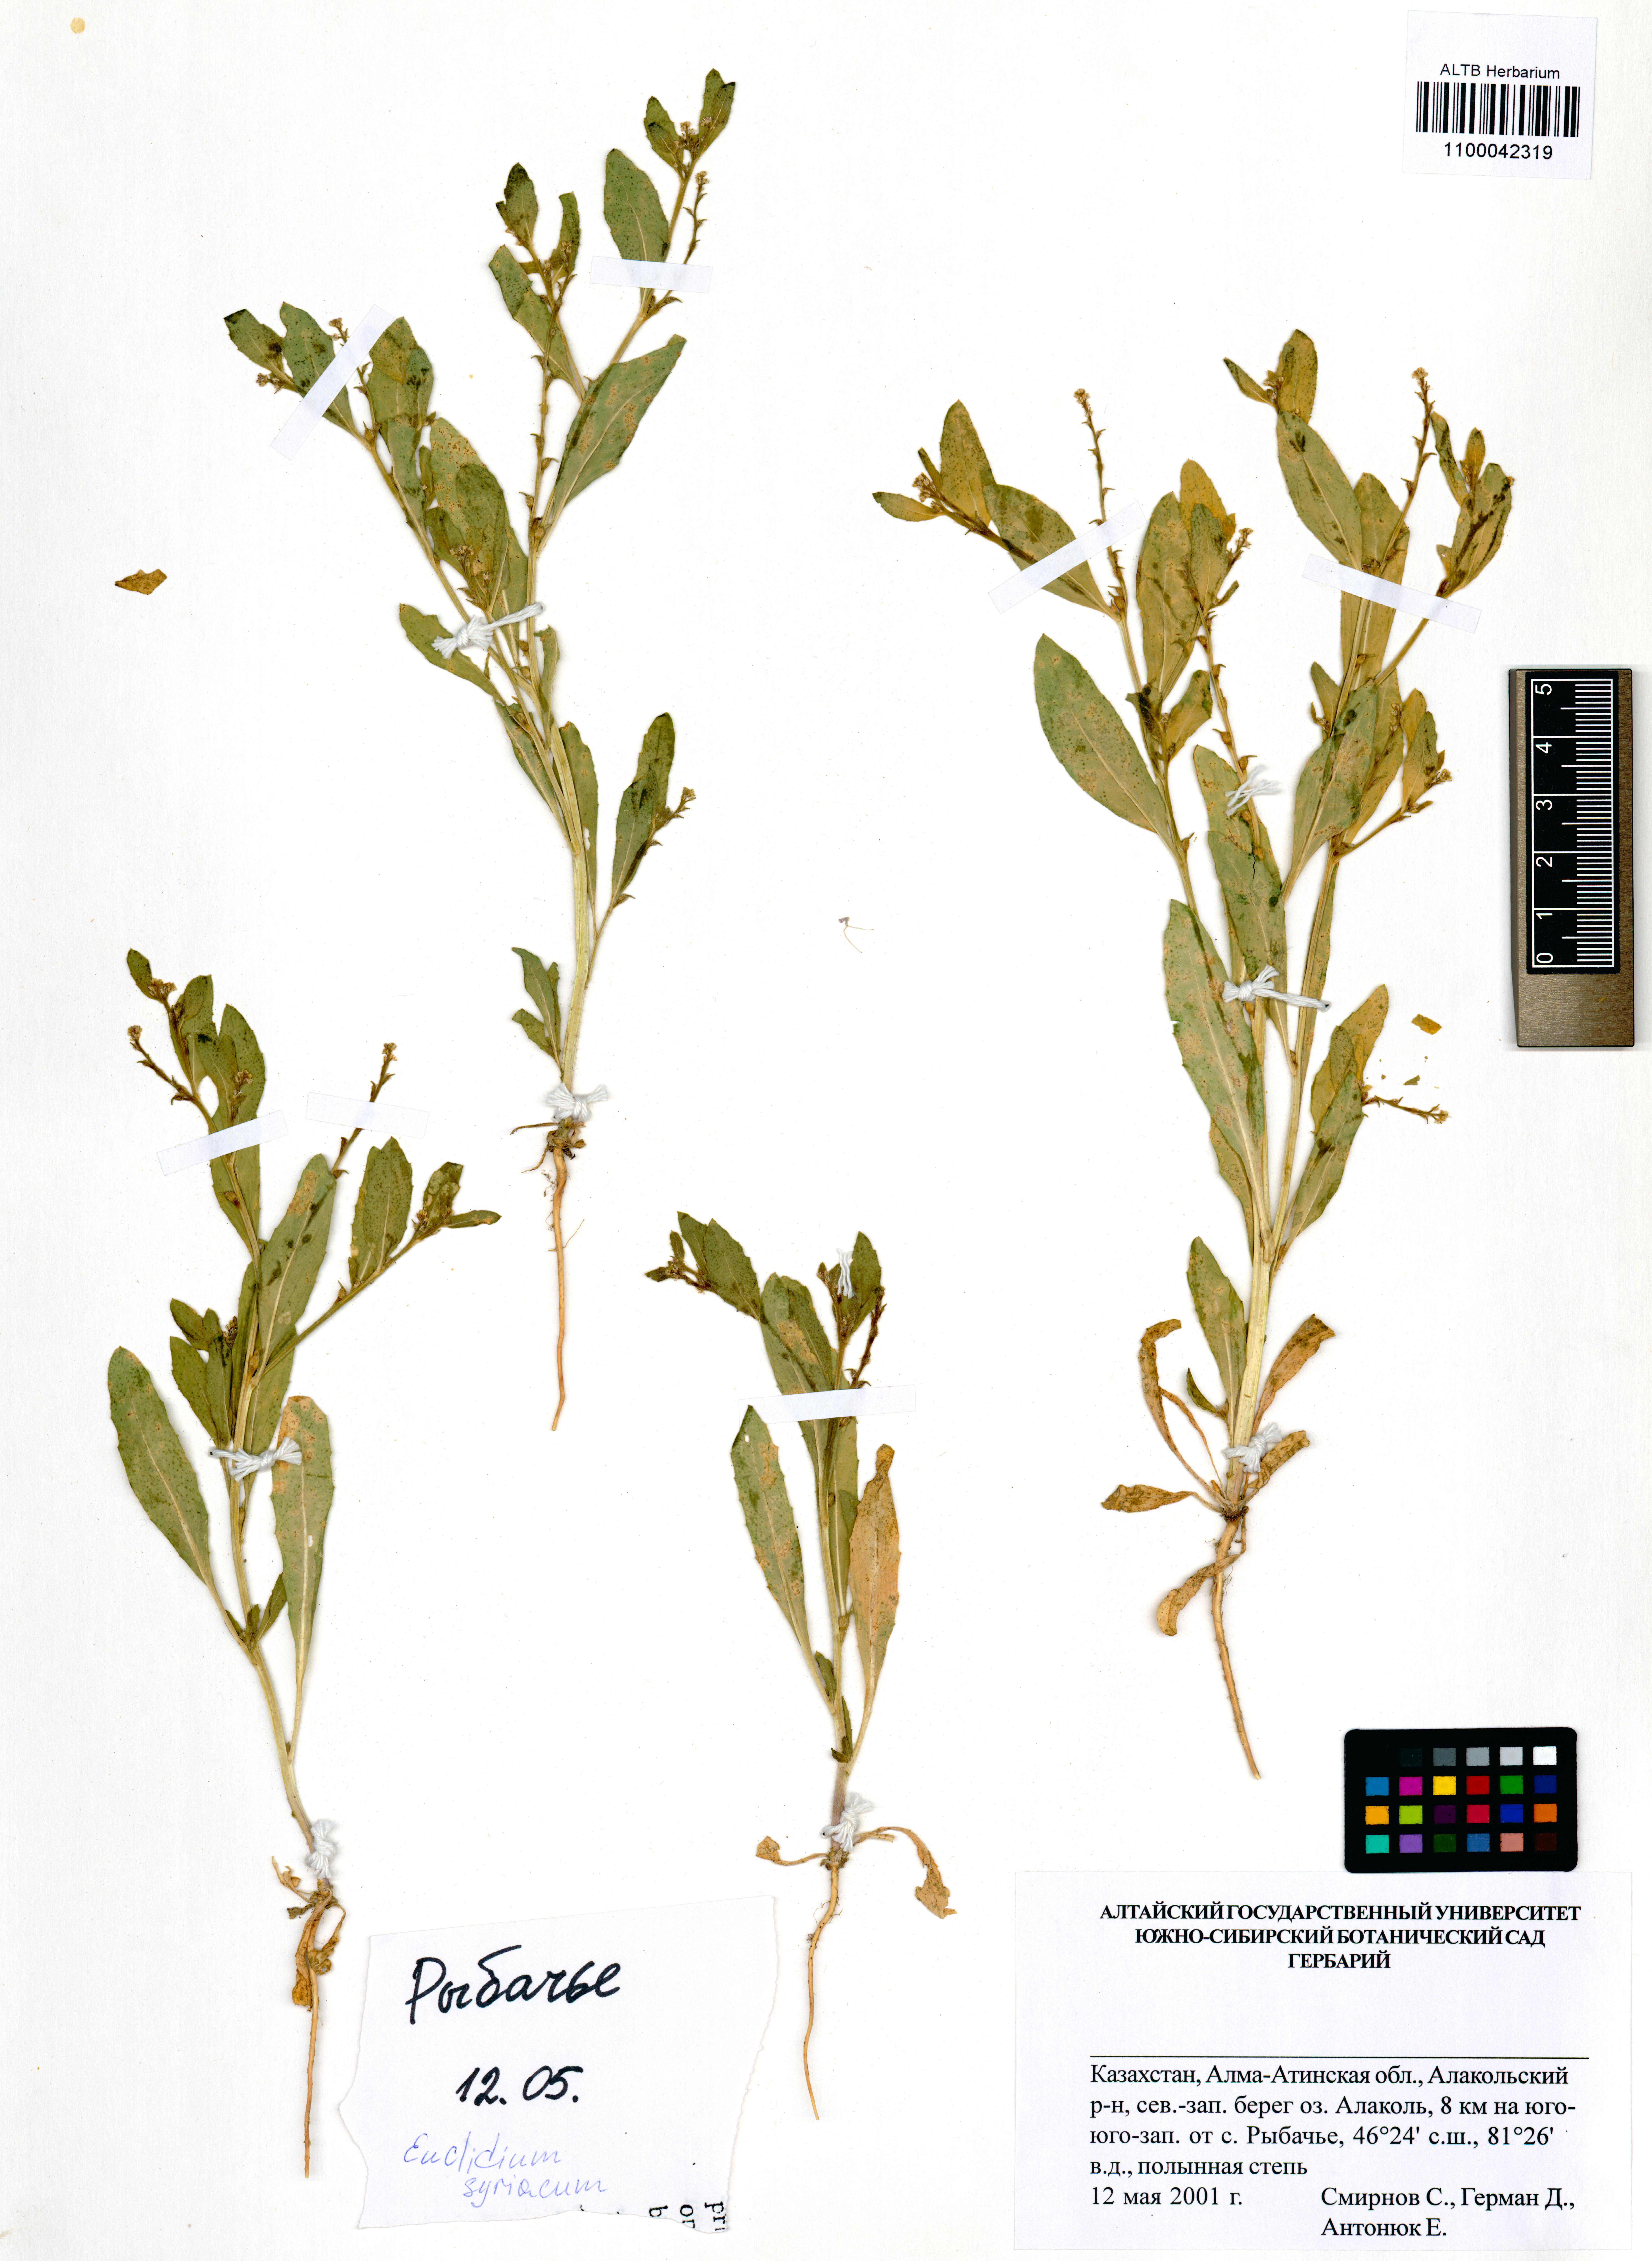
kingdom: Plantae
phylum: Tracheophyta
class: Magnoliopsida
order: Brassicales
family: Brassicaceae
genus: Euclidium
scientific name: Euclidium syriacum
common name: Syrian mustard
